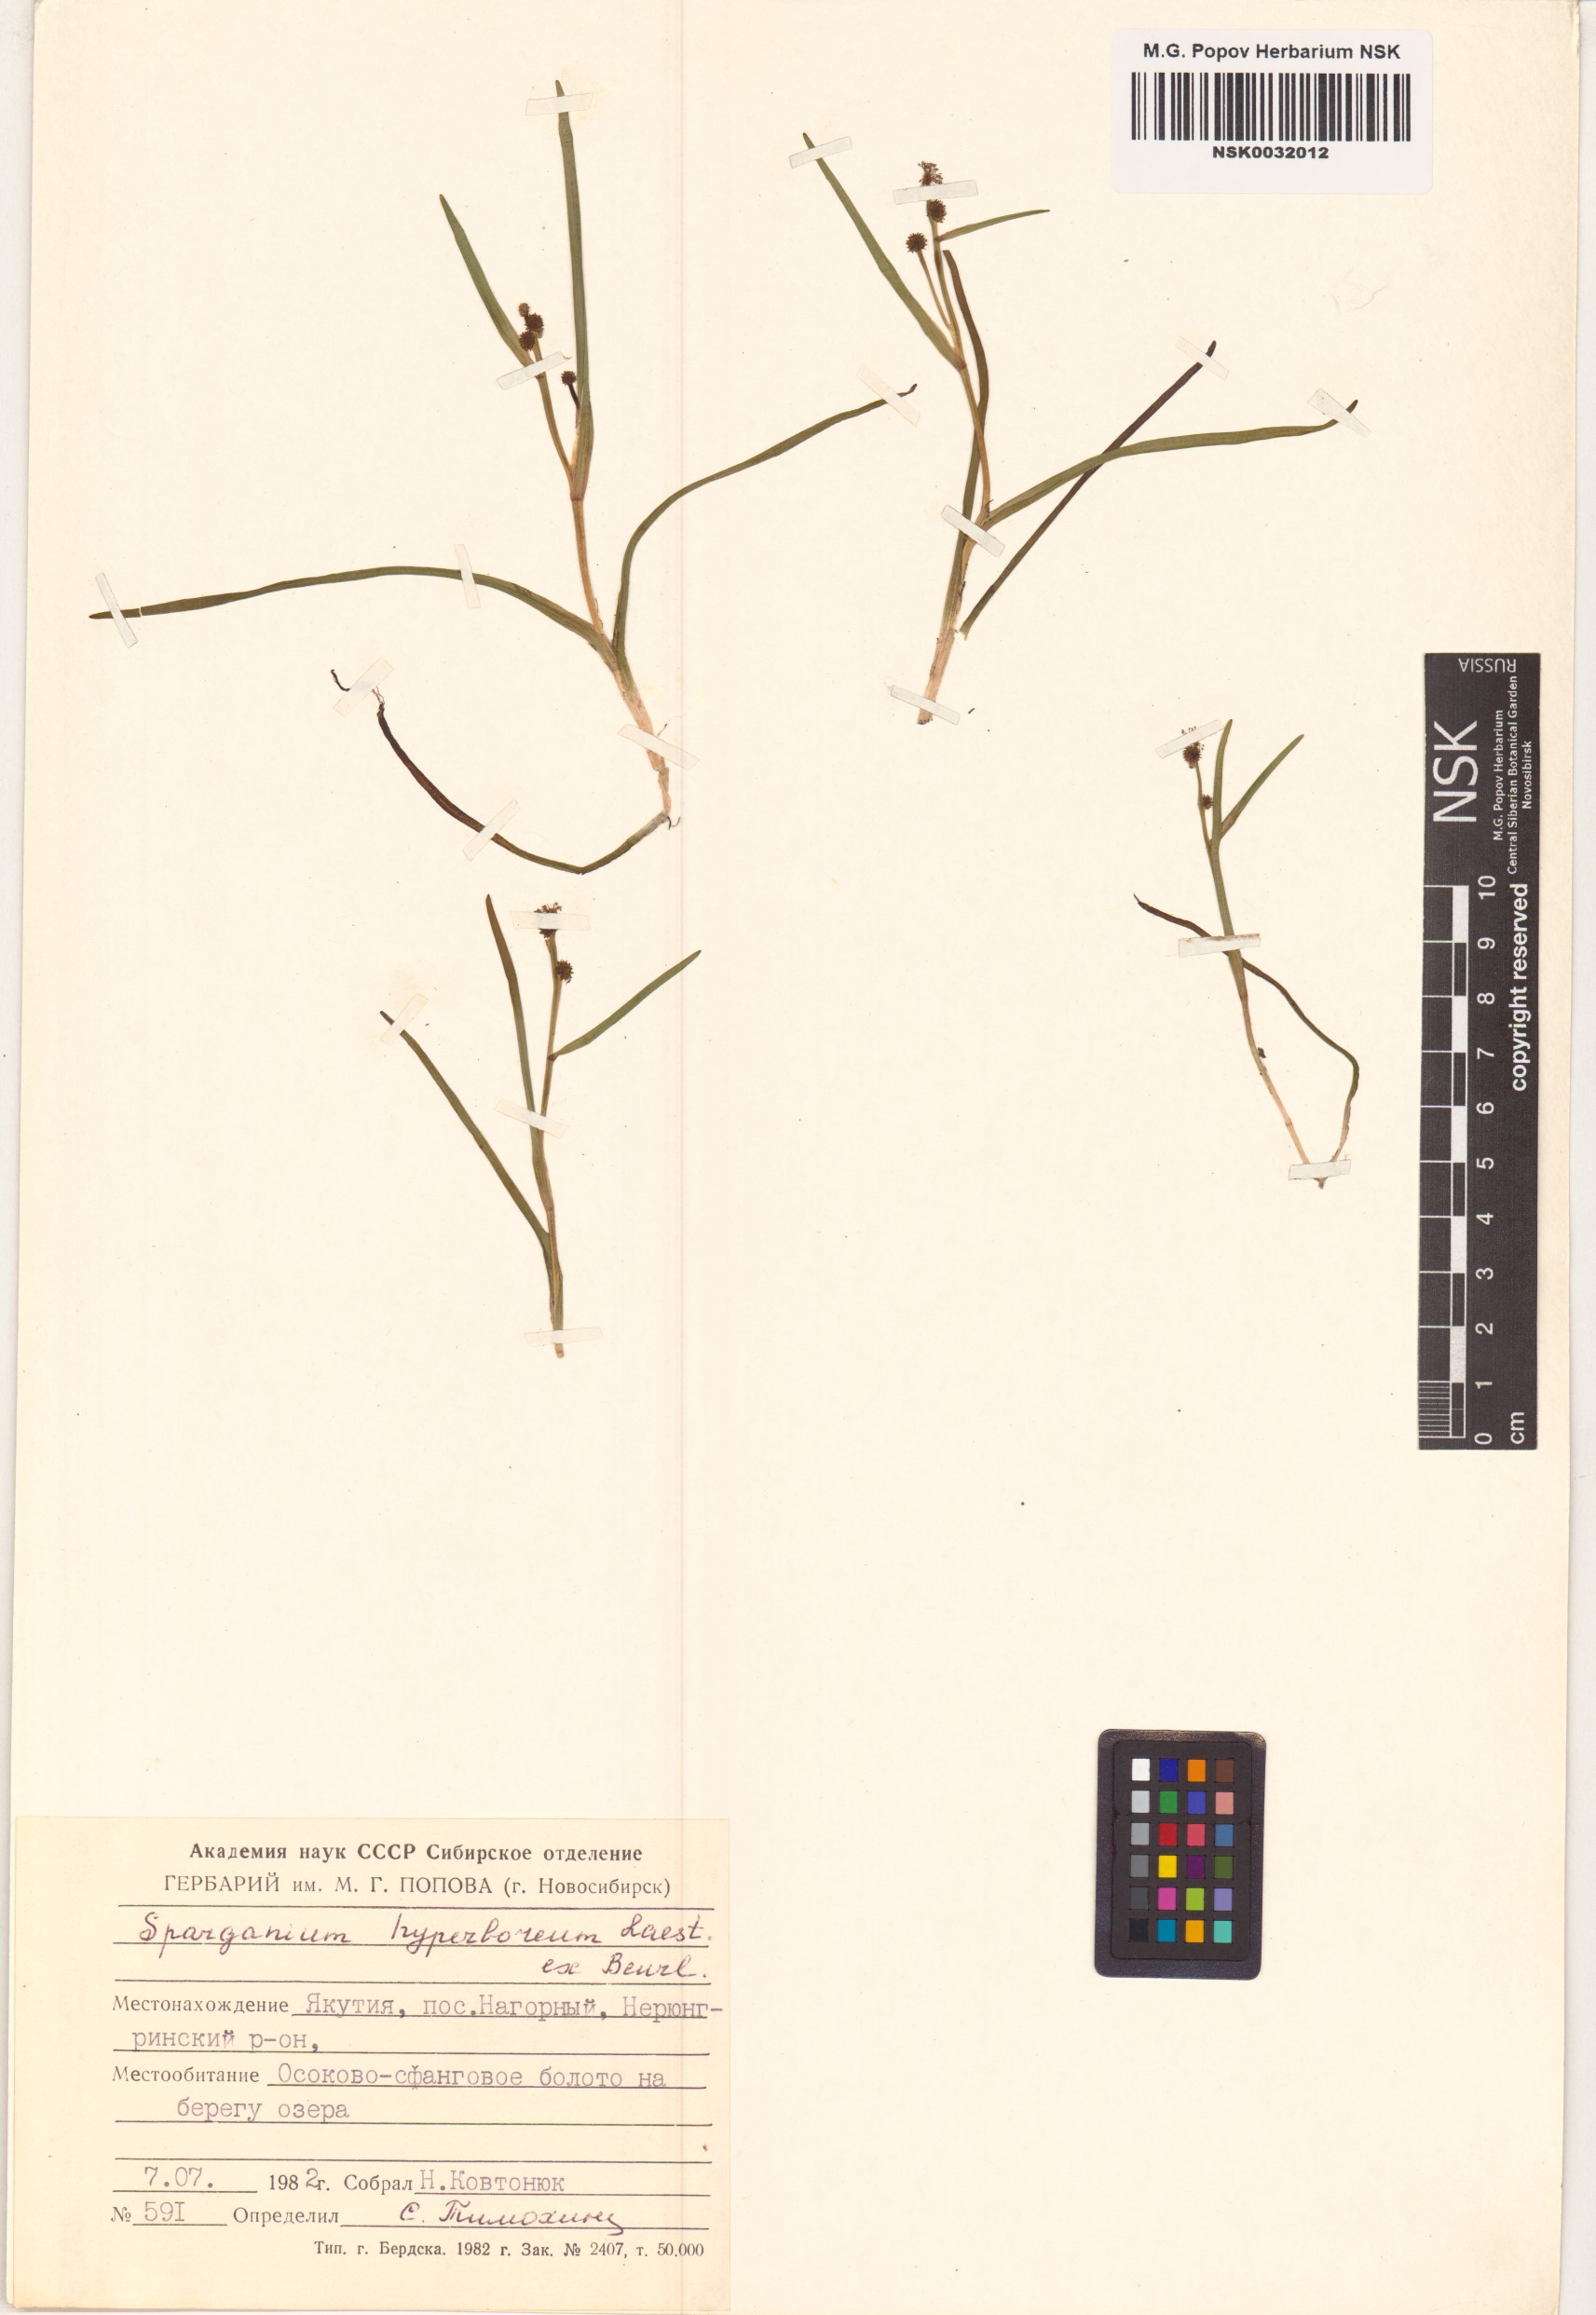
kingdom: Plantae
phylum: Tracheophyta
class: Liliopsida
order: Poales
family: Typhaceae
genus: Sparganium
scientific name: Sparganium hyperboreum
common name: Arctic burreed
